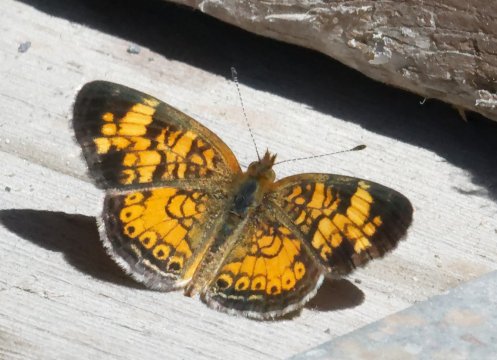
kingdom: Animalia
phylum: Arthropoda
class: Insecta
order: Lepidoptera
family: Nymphalidae
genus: Phyciodes
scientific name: Phyciodes
